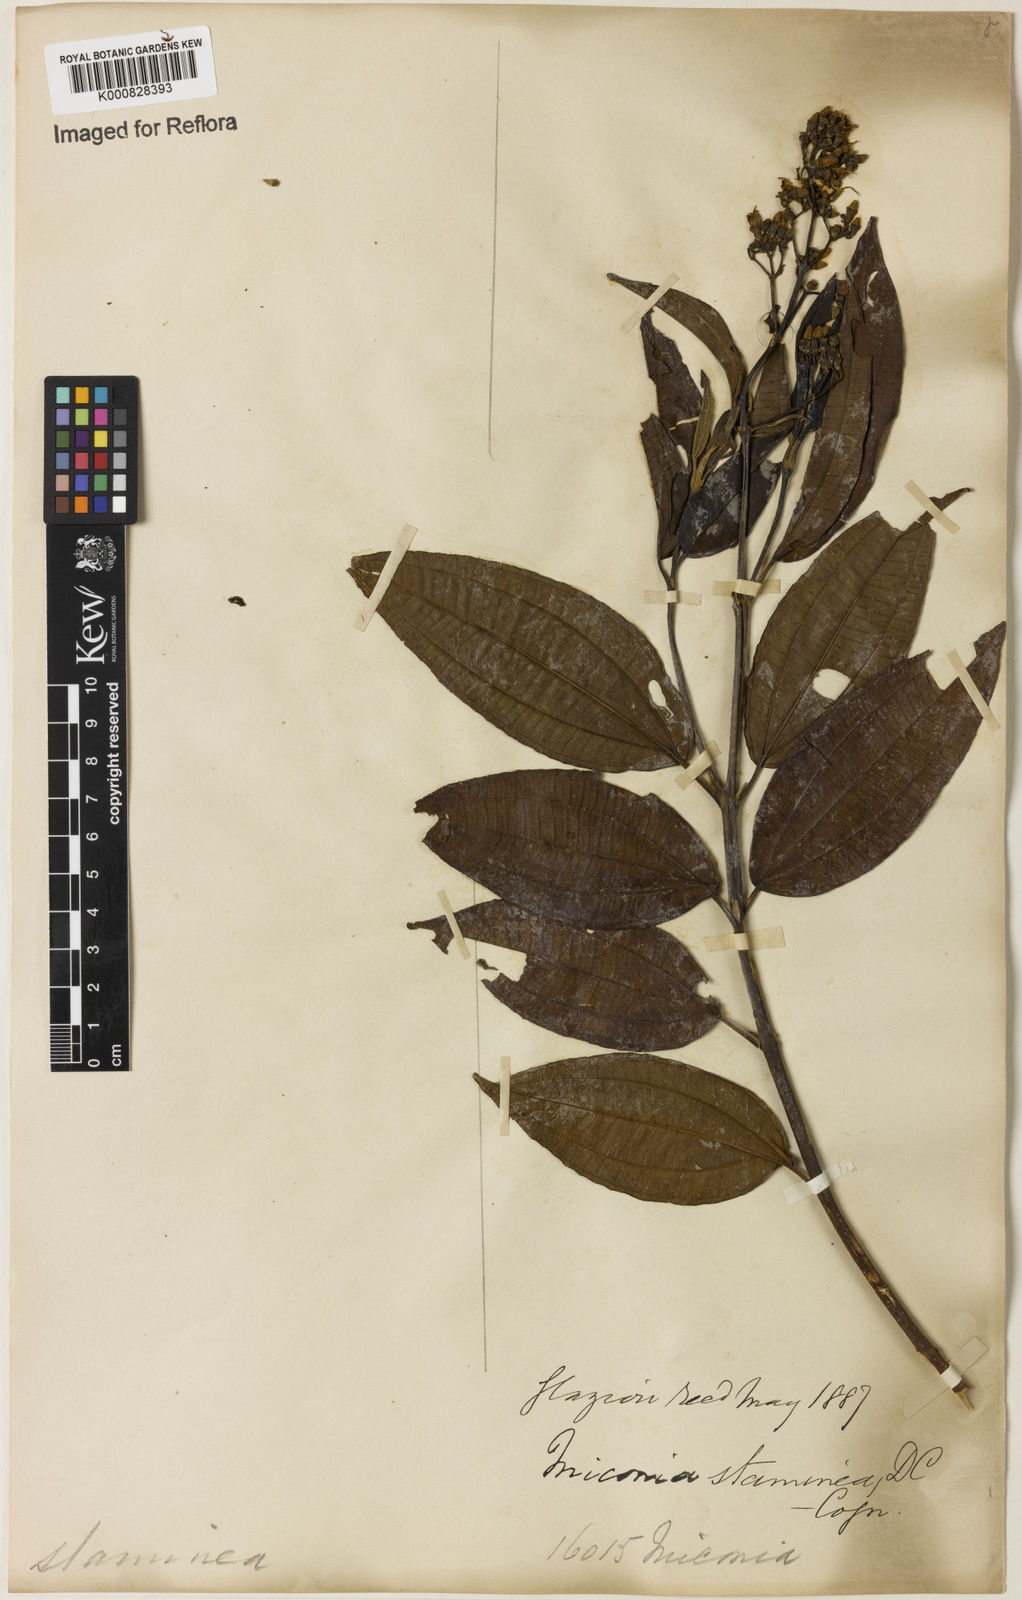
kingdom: Plantae
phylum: Tracheophyta
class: Magnoliopsida
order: Myrtales
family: Melastomataceae
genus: Miconia
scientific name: Miconia staminea
